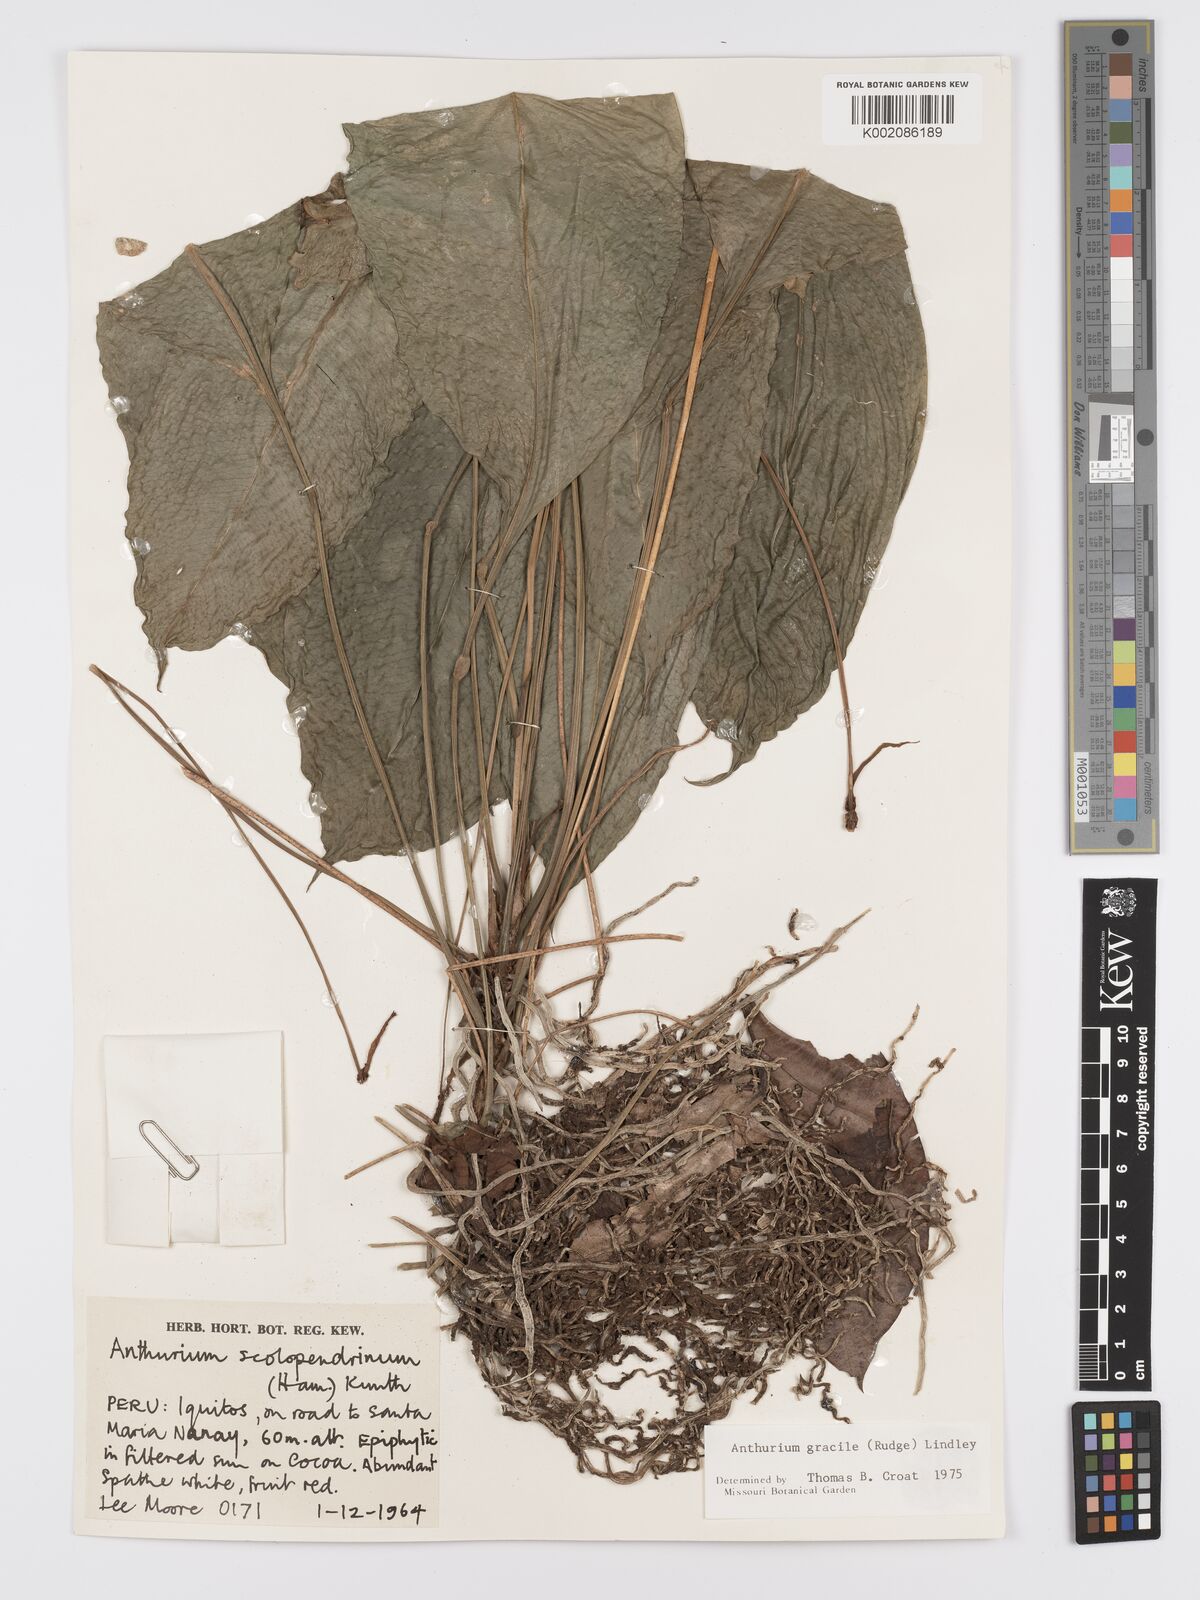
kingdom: Plantae
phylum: Tracheophyta
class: Liliopsida
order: Alismatales
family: Araceae
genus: Anthurium
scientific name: Anthurium gracile
